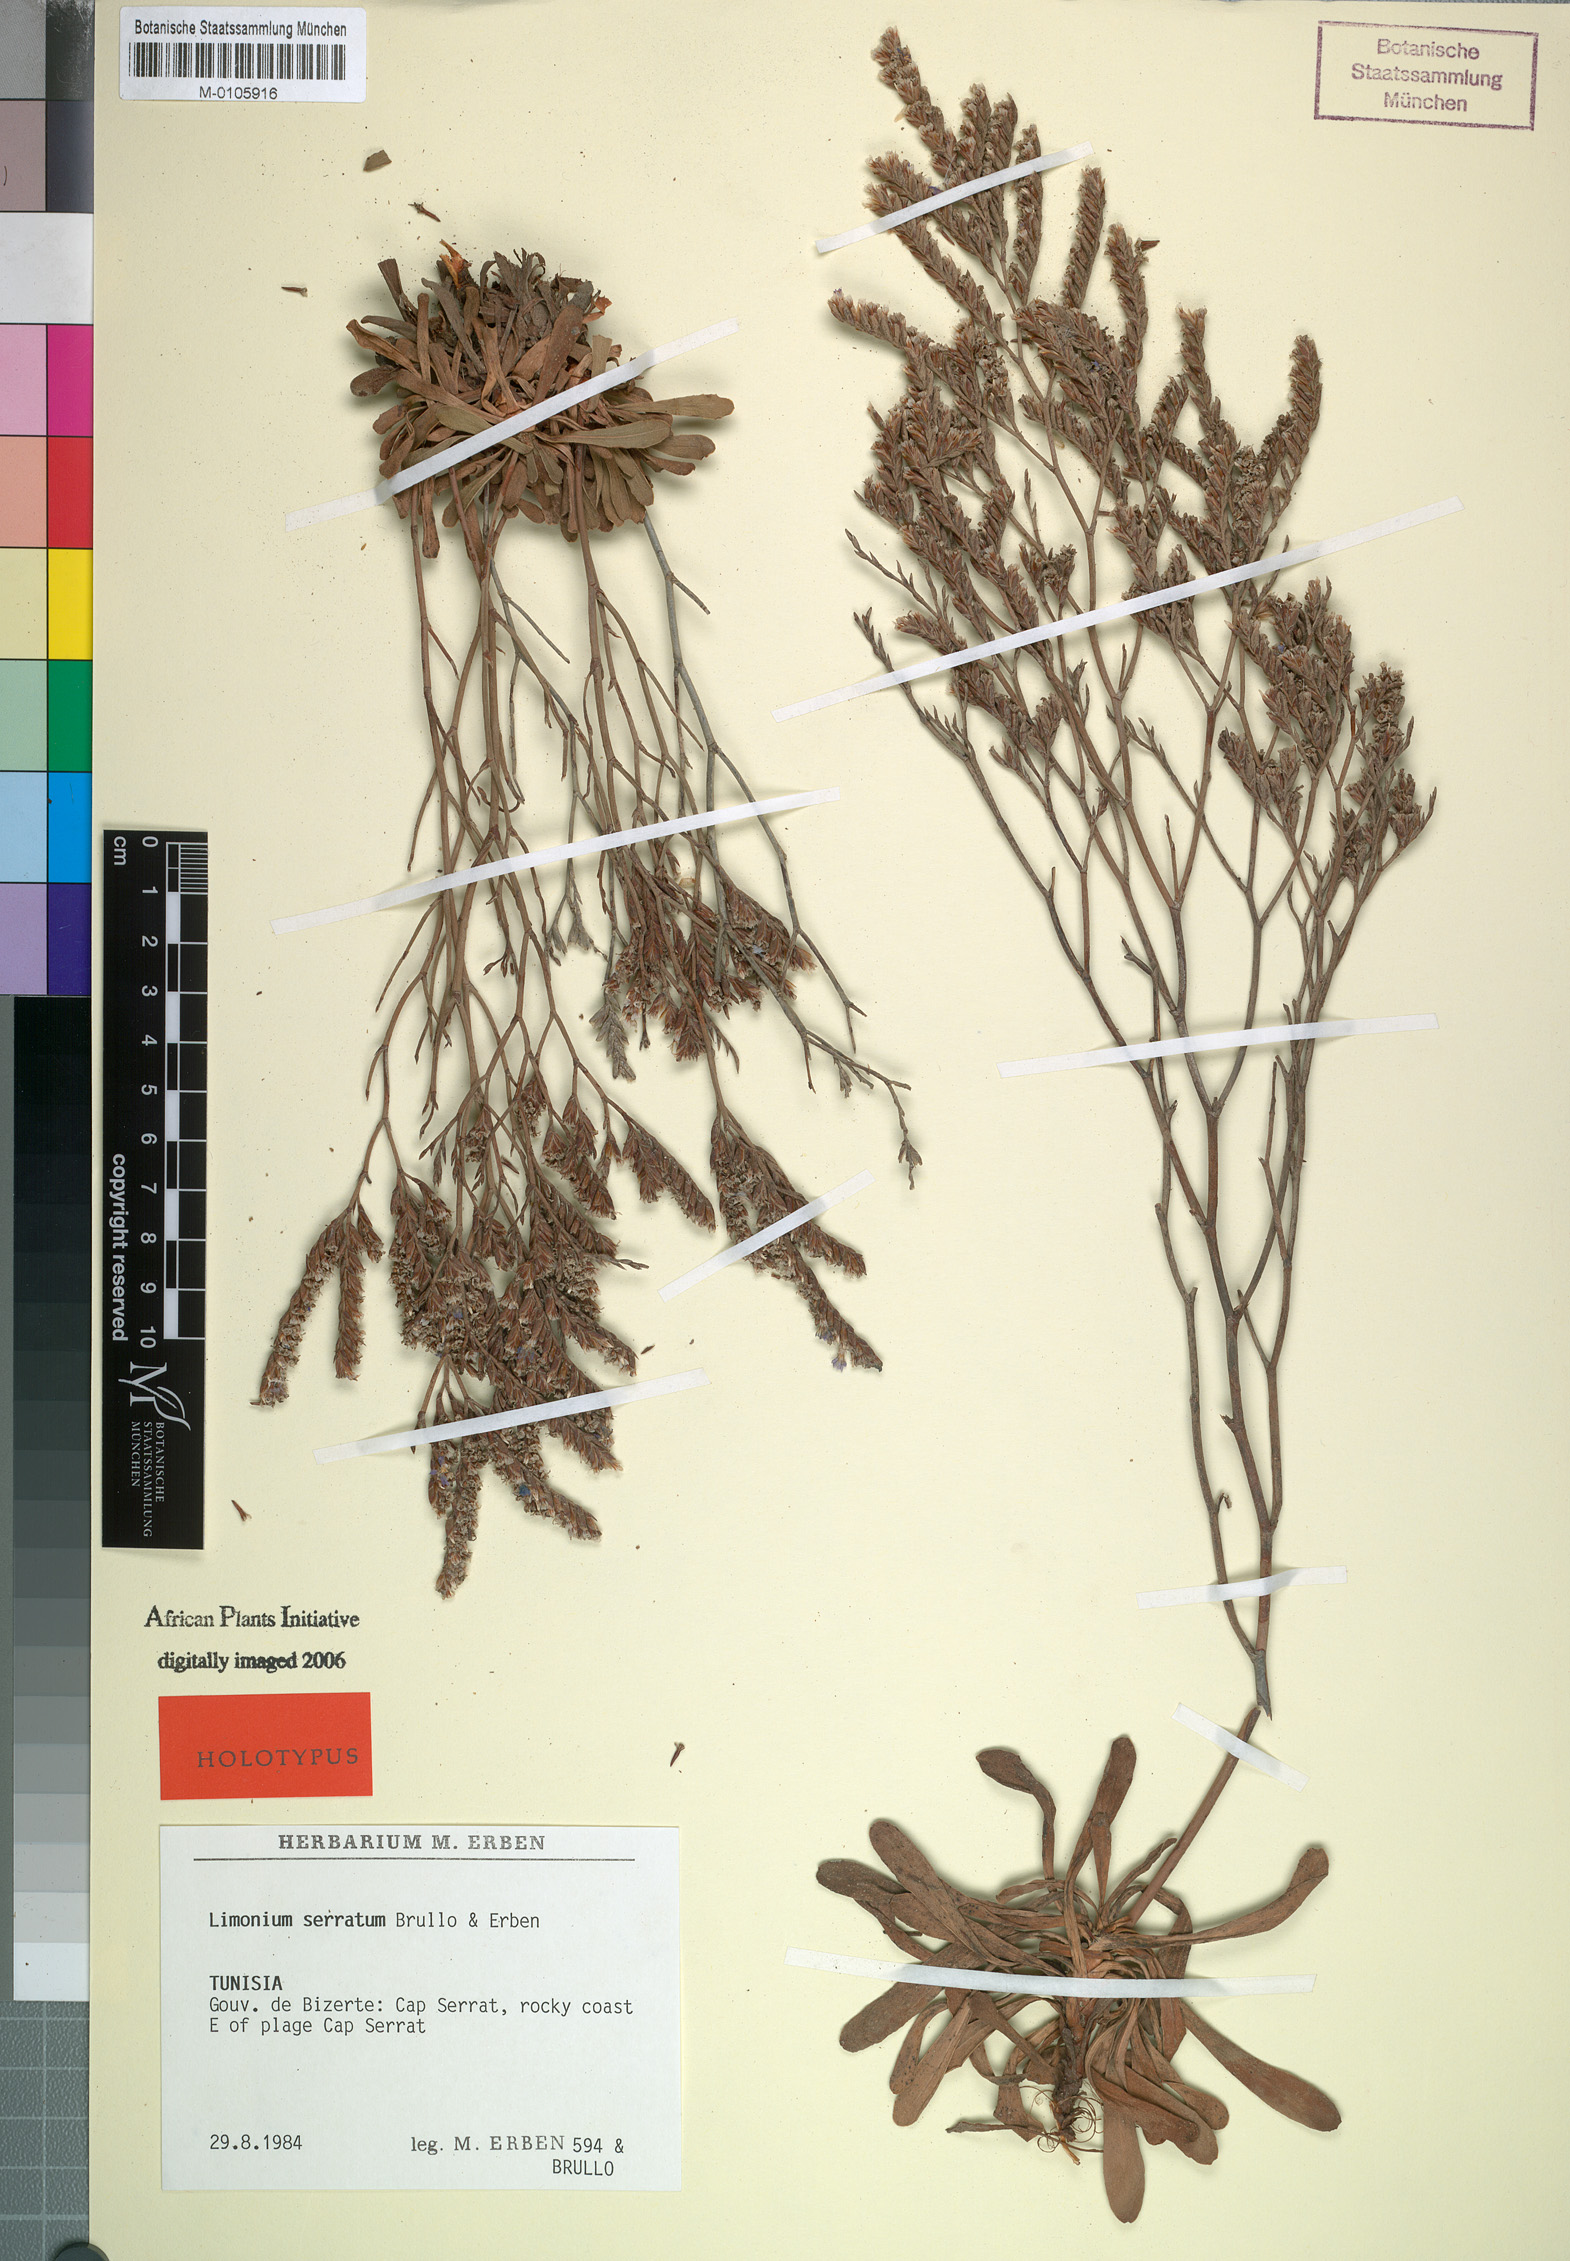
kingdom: Plantae
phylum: Tracheophyta
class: Magnoliopsida
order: Caryophyllales
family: Plumbaginaceae
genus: Limonium
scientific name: Limonium serratum
